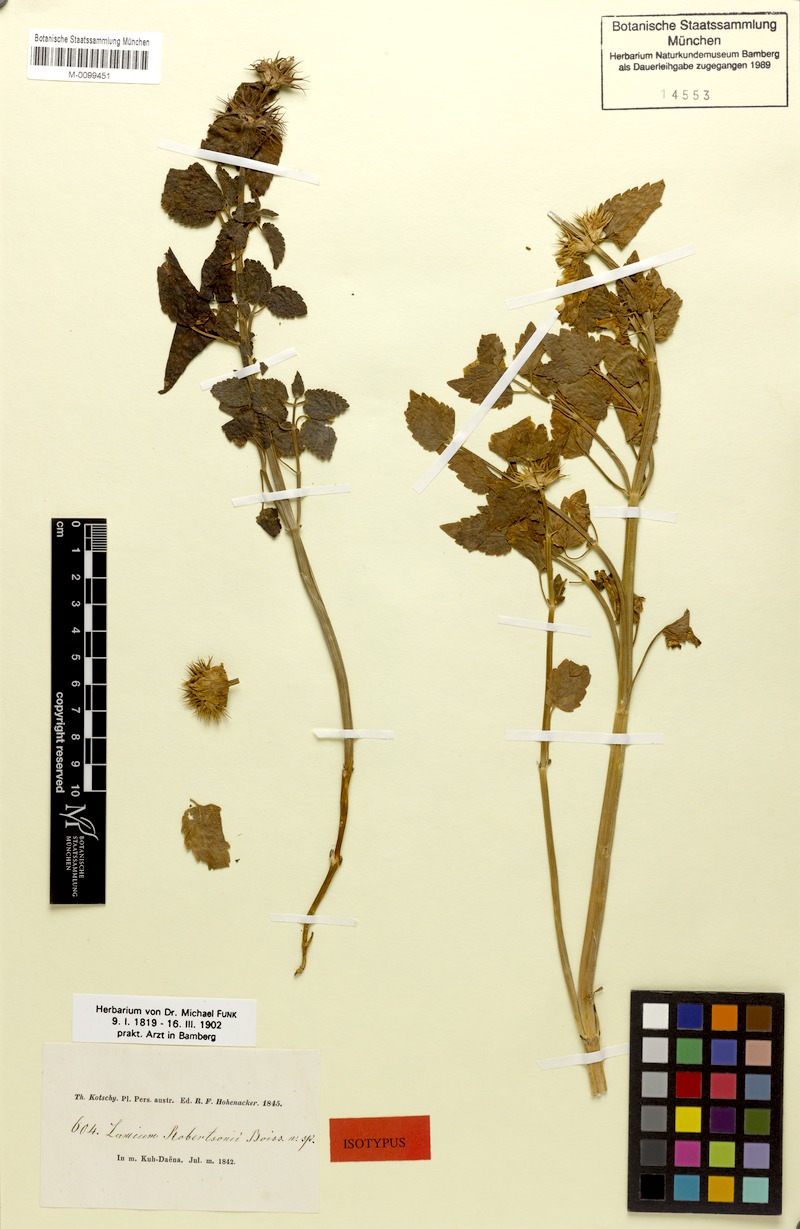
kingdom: Plantae
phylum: Tracheophyta
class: Magnoliopsida
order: Lamiales
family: Lamiaceae
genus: Lamium
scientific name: Lamium album
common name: White dead-nettle
